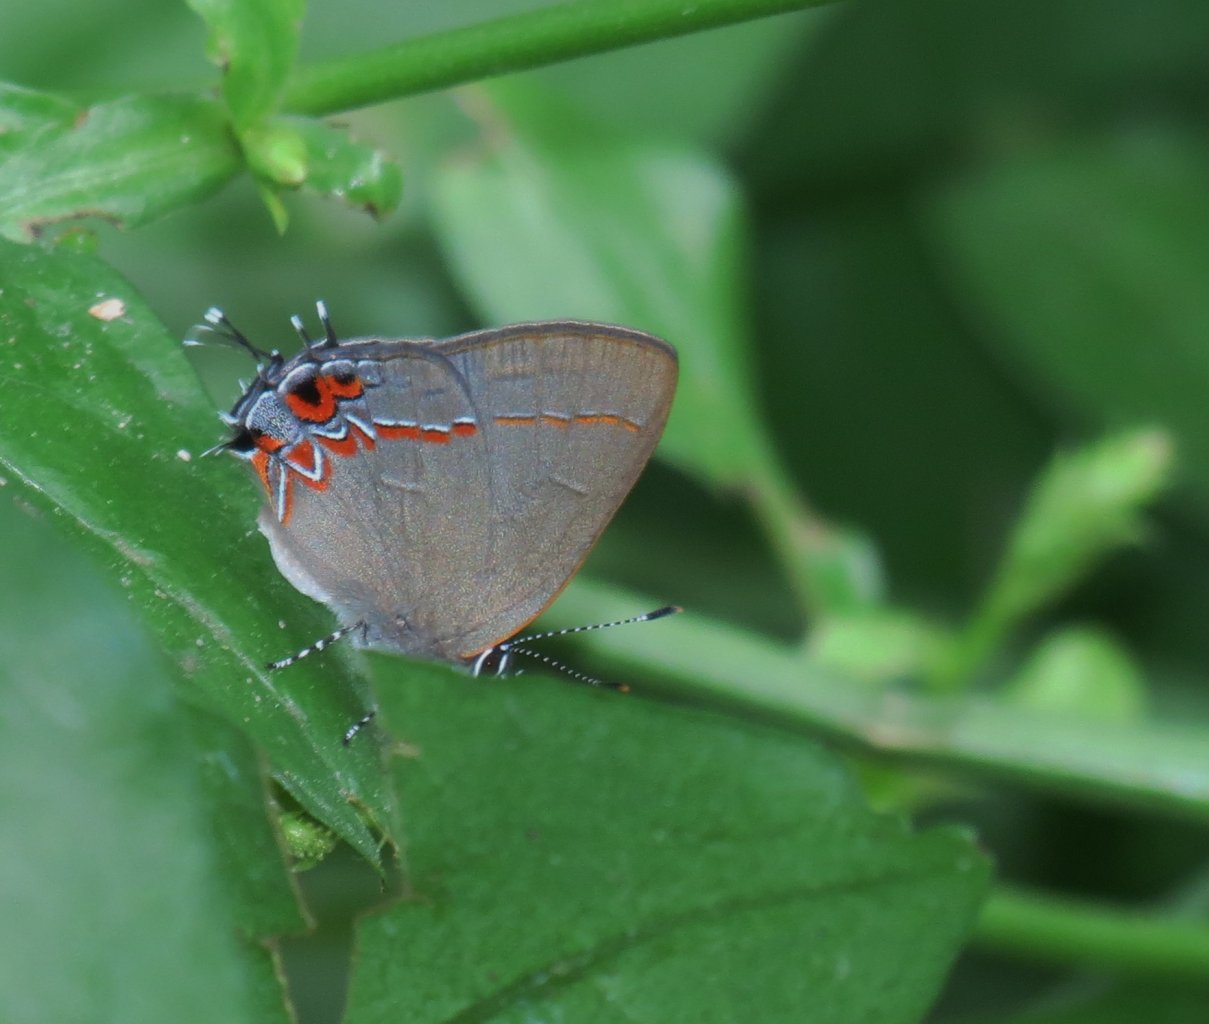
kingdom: Animalia
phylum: Arthropoda
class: Insecta
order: Lepidoptera
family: Lycaenidae
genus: Calycopis
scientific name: Calycopis isobeon
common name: Dusky-blue Groundstreak
